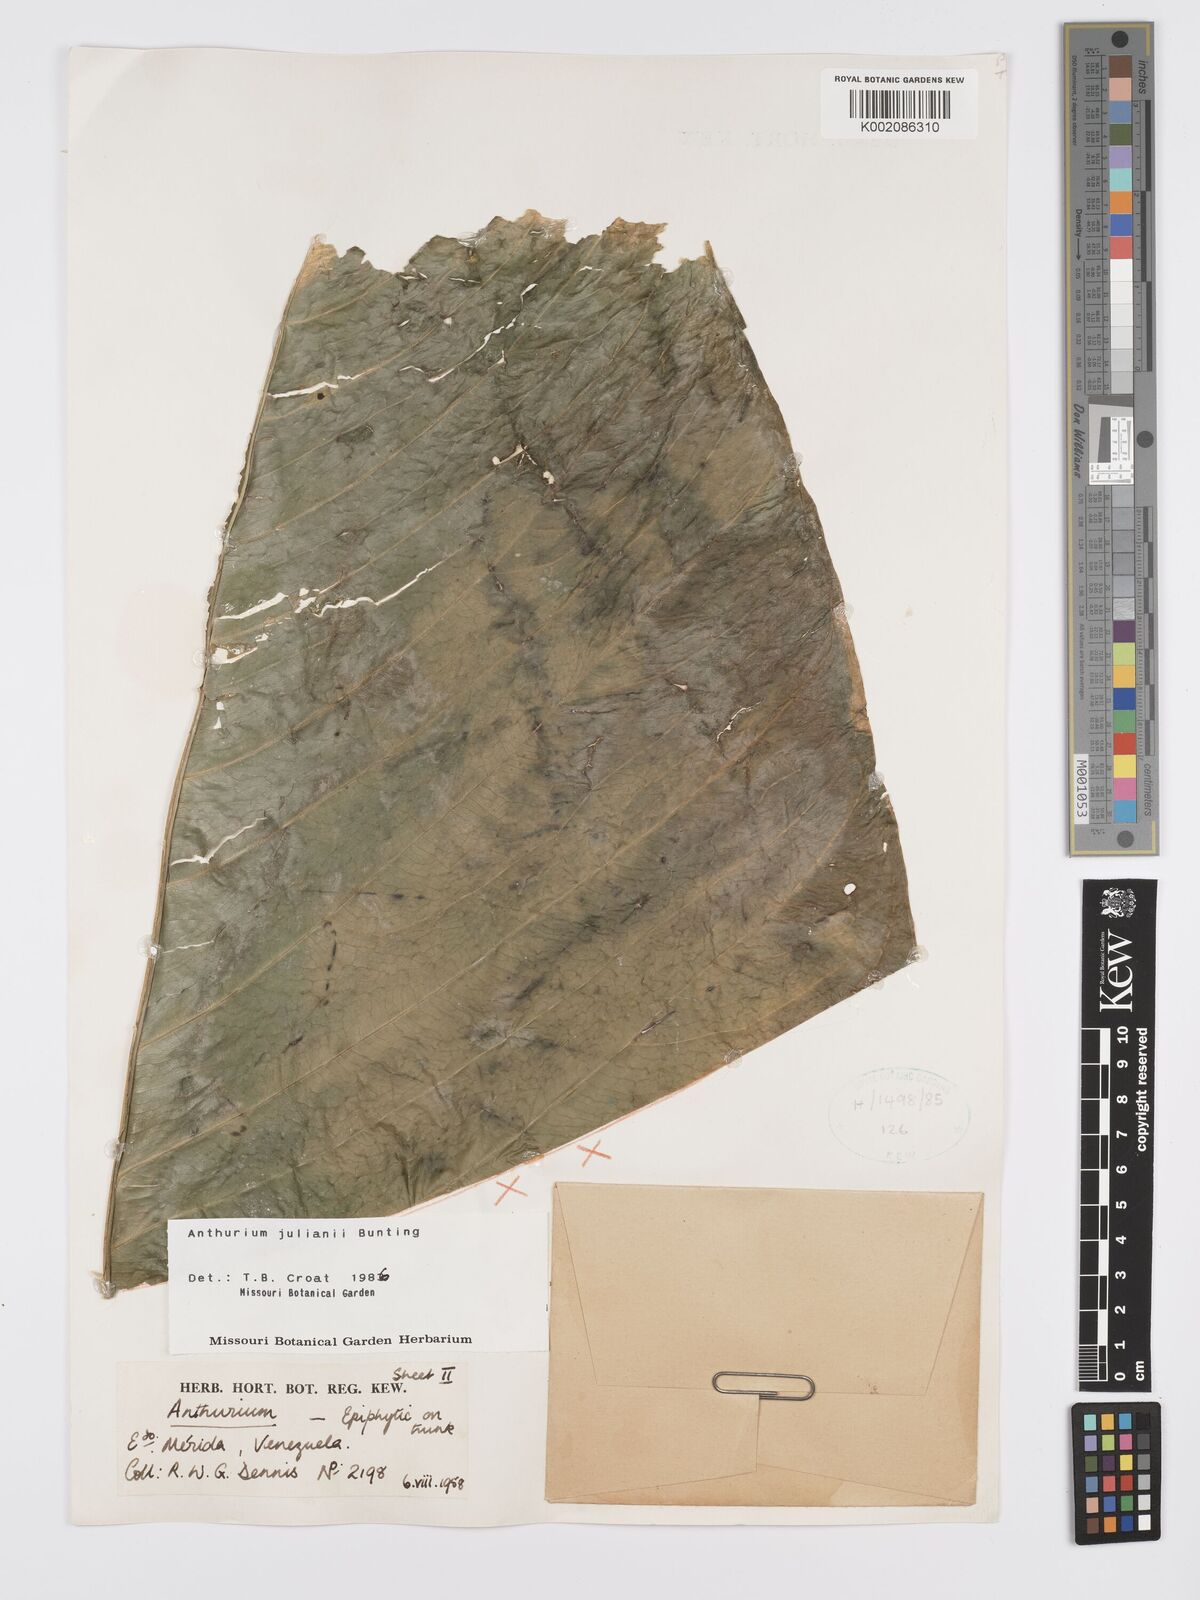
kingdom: Plantae
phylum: Tracheophyta
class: Liliopsida
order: Alismatales
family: Araceae
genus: Anthurium
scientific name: Anthurium julianii
